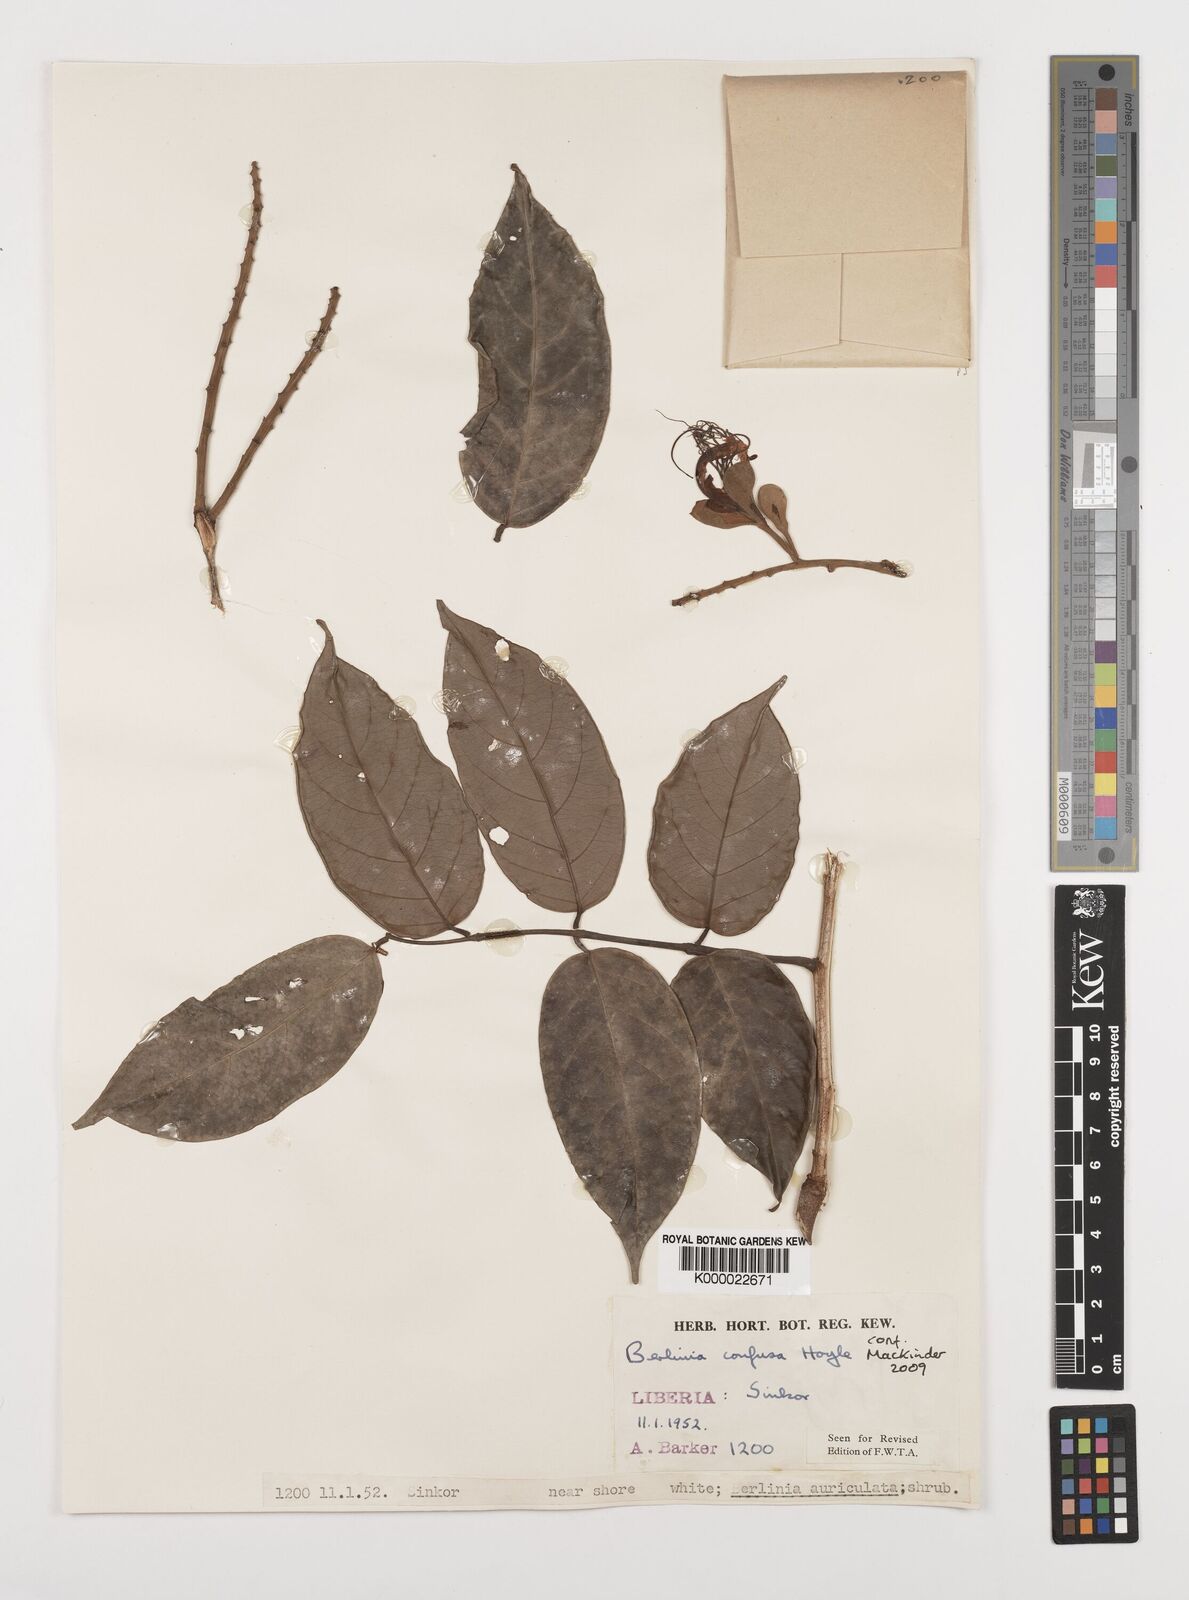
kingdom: Plantae
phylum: Tracheophyta
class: Magnoliopsida
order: Fabales
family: Fabaceae
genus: Berlinia
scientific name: Berlinia confusa
